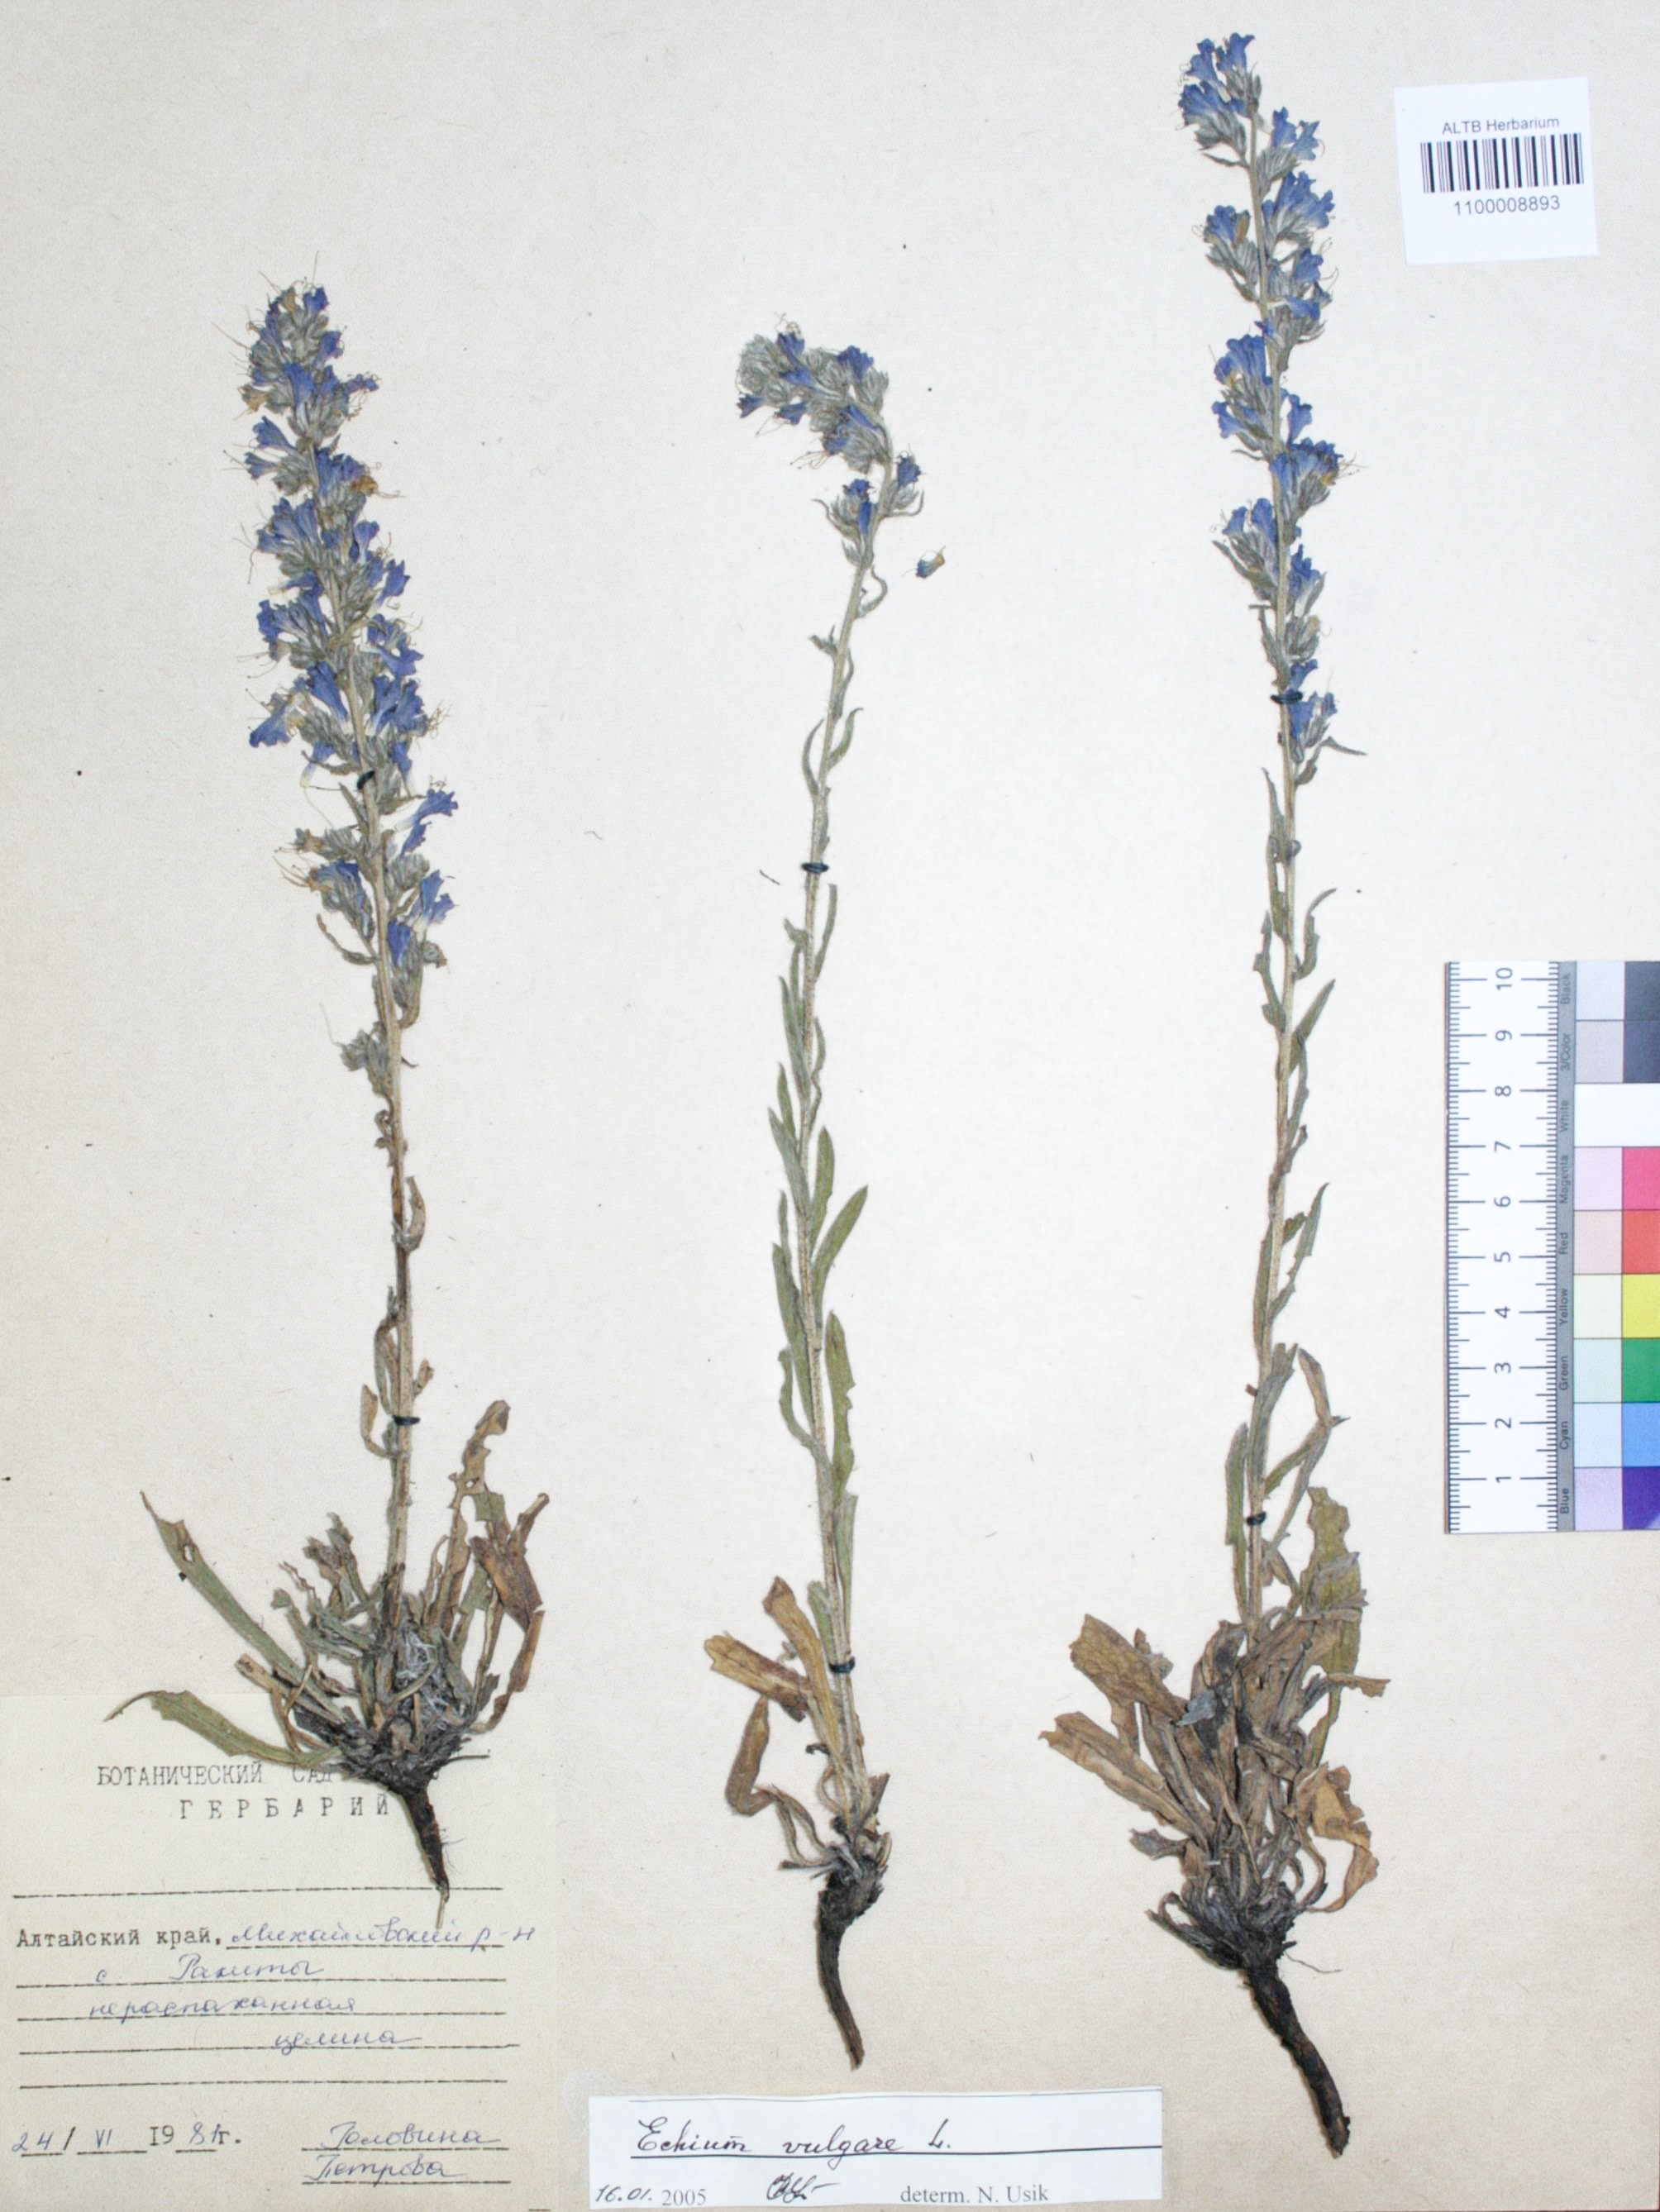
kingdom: Plantae
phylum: Tracheophyta
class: Magnoliopsida
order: Boraginales
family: Boraginaceae
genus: Echium
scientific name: Echium vulgare
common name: Common viper's bugloss
